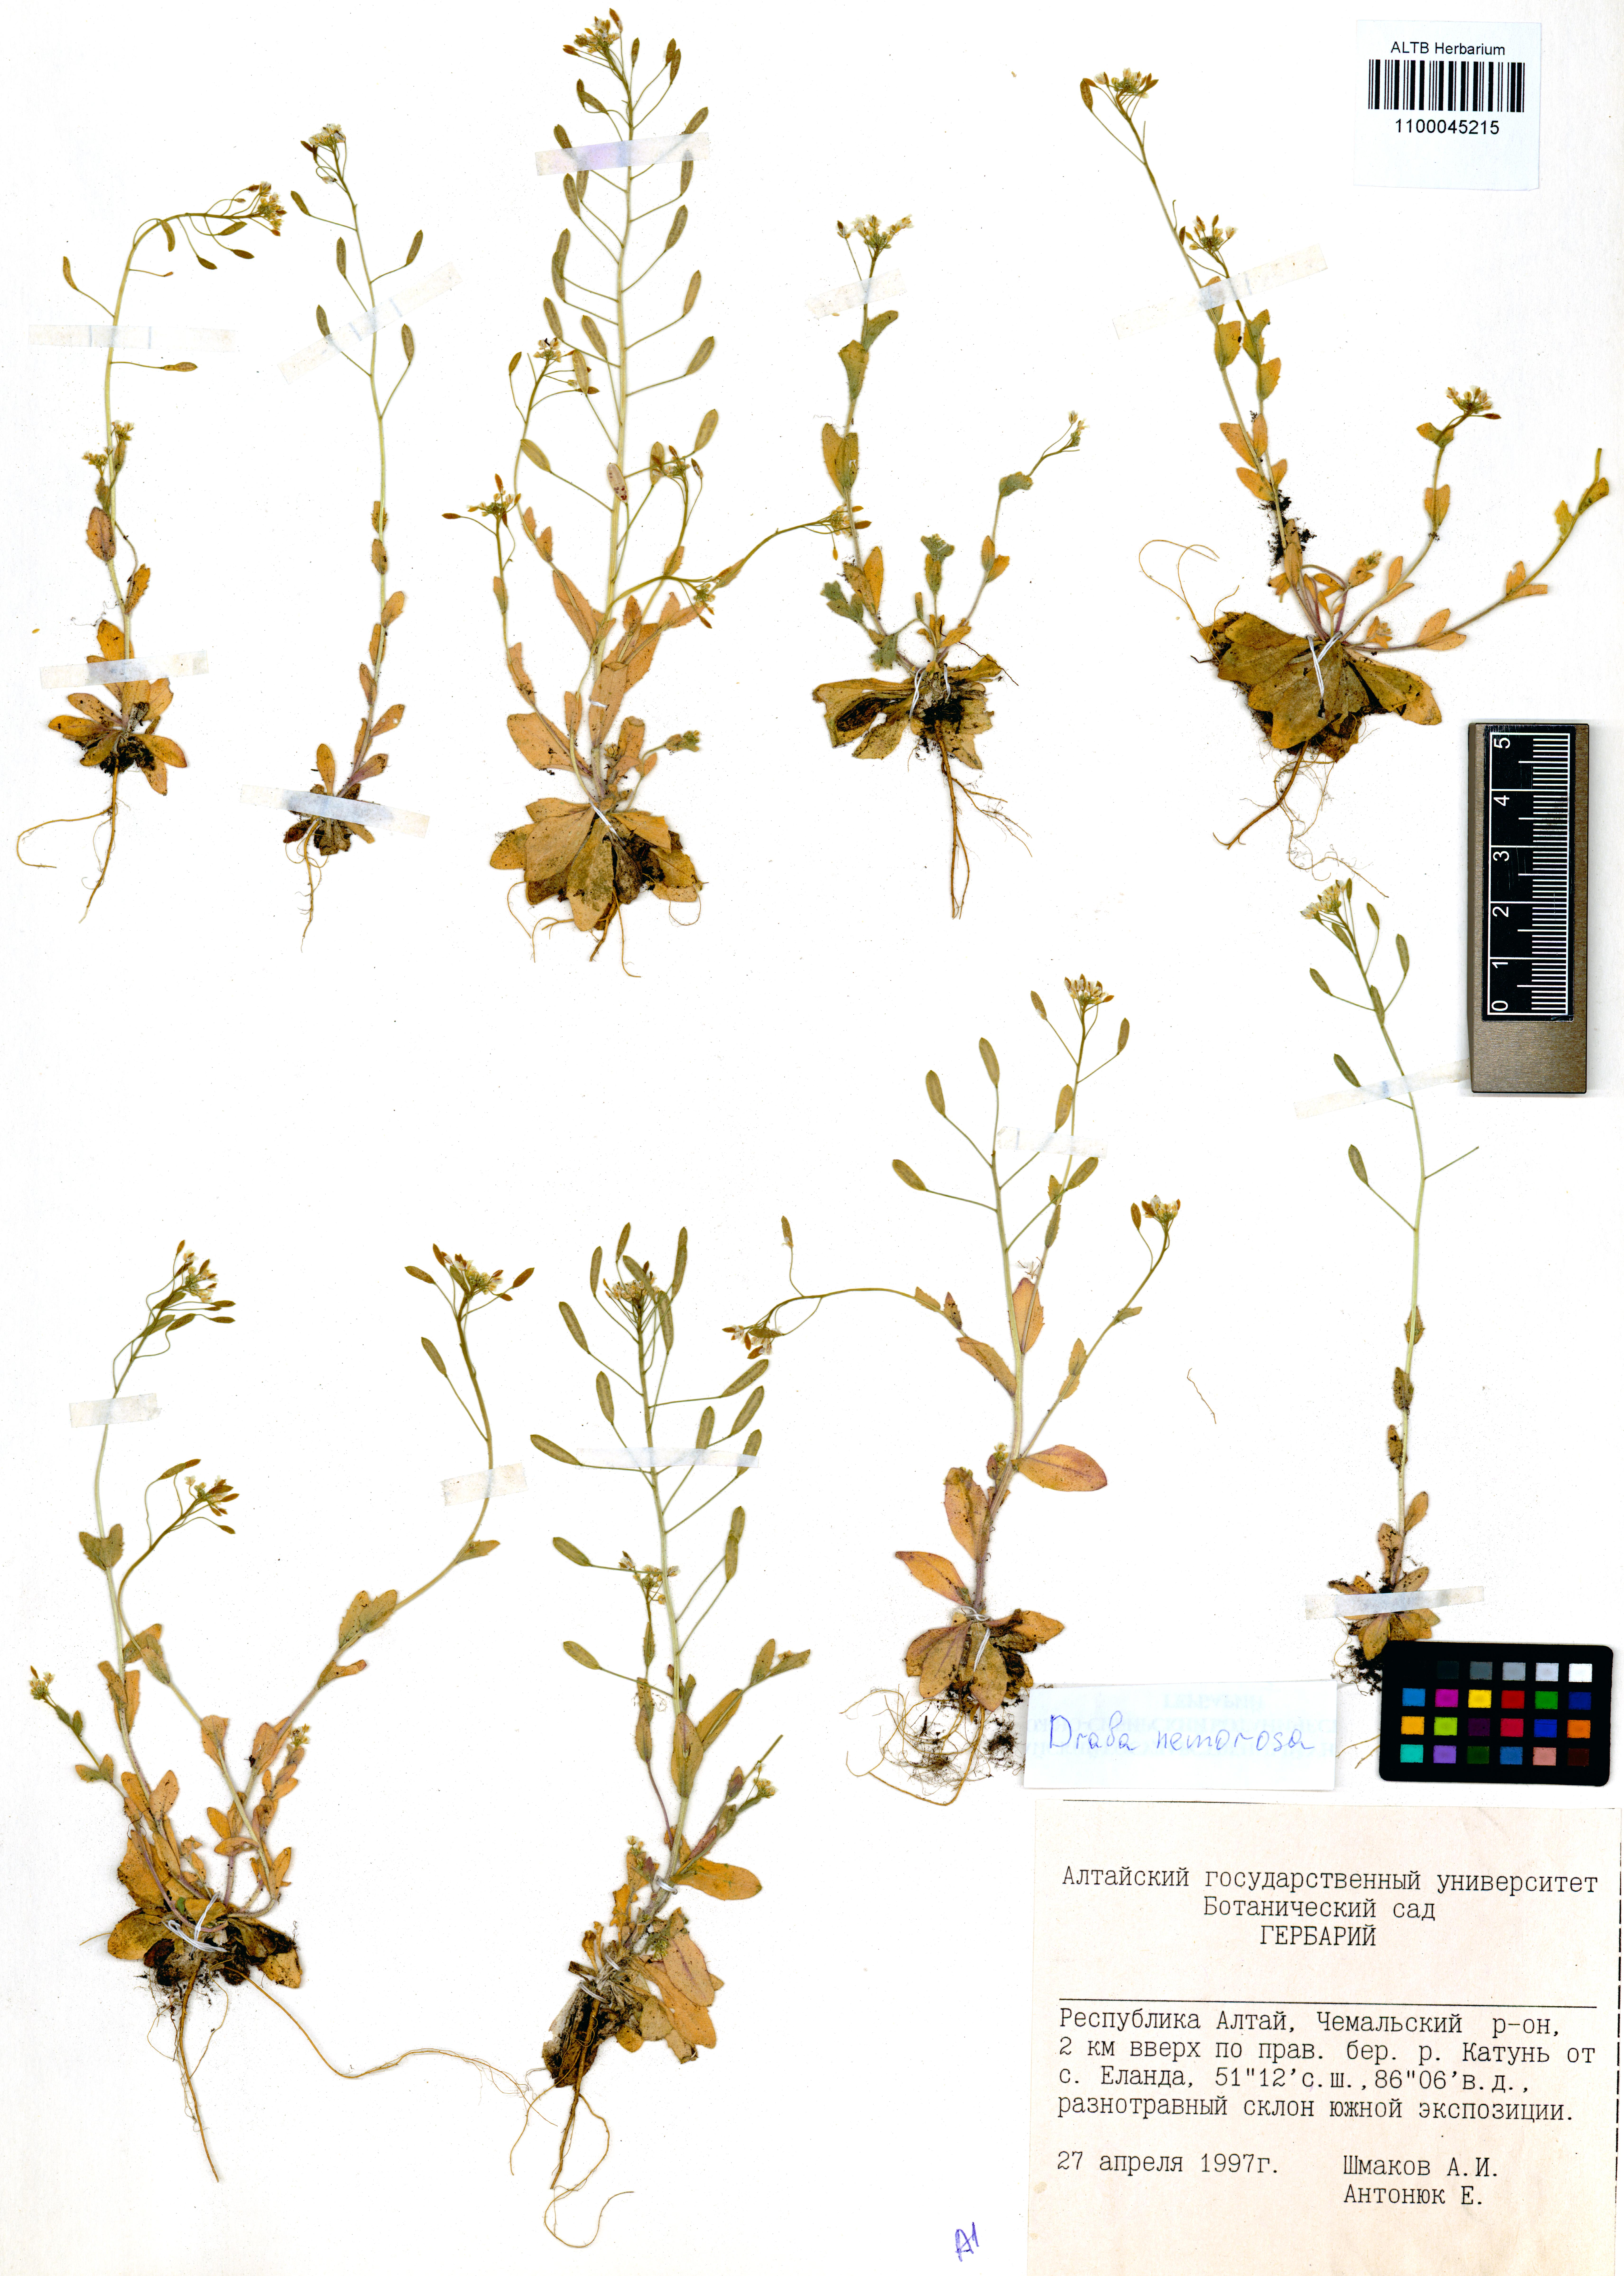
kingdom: Plantae
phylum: Tracheophyta
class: Magnoliopsida
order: Brassicales
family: Brassicaceae
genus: Draba
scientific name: Draba nemorosa
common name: Wood whitlow-grass
